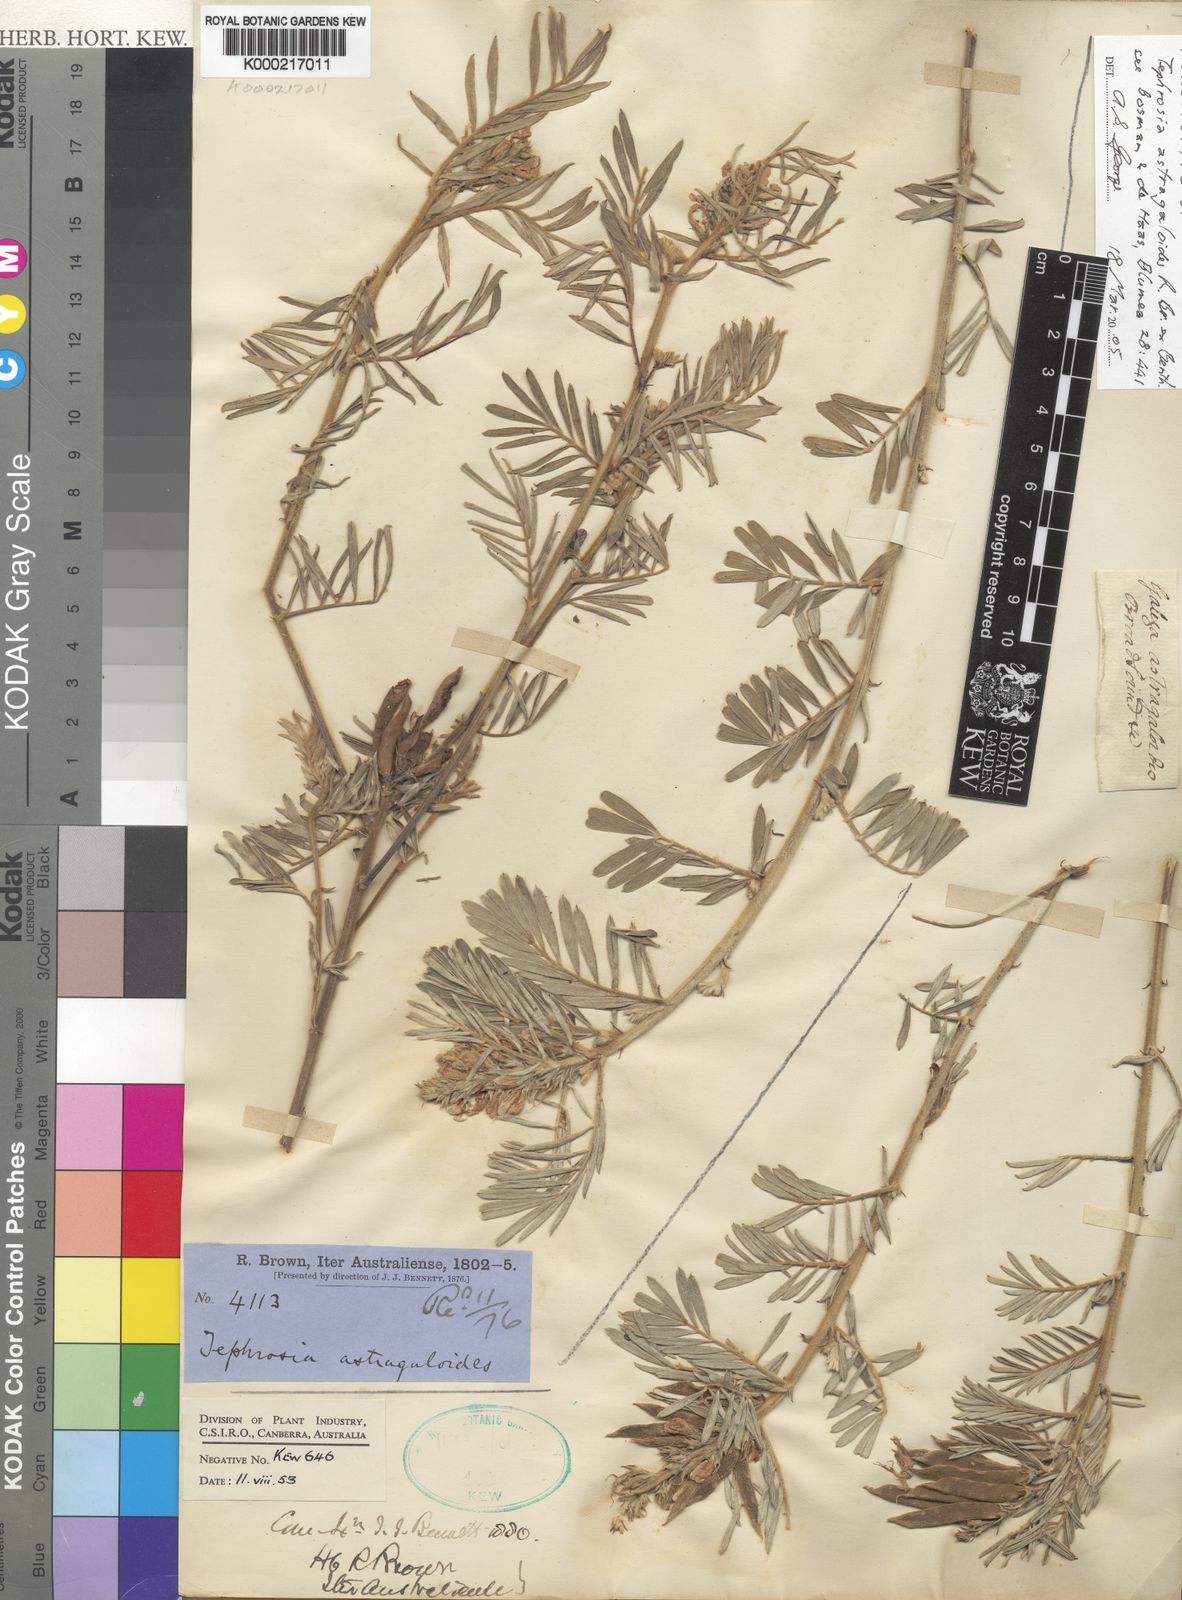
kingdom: Plantae
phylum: Tracheophyta
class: Magnoliopsida
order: Fabales
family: Fabaceae
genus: Tephrosia
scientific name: Tephrosia astragaloides
